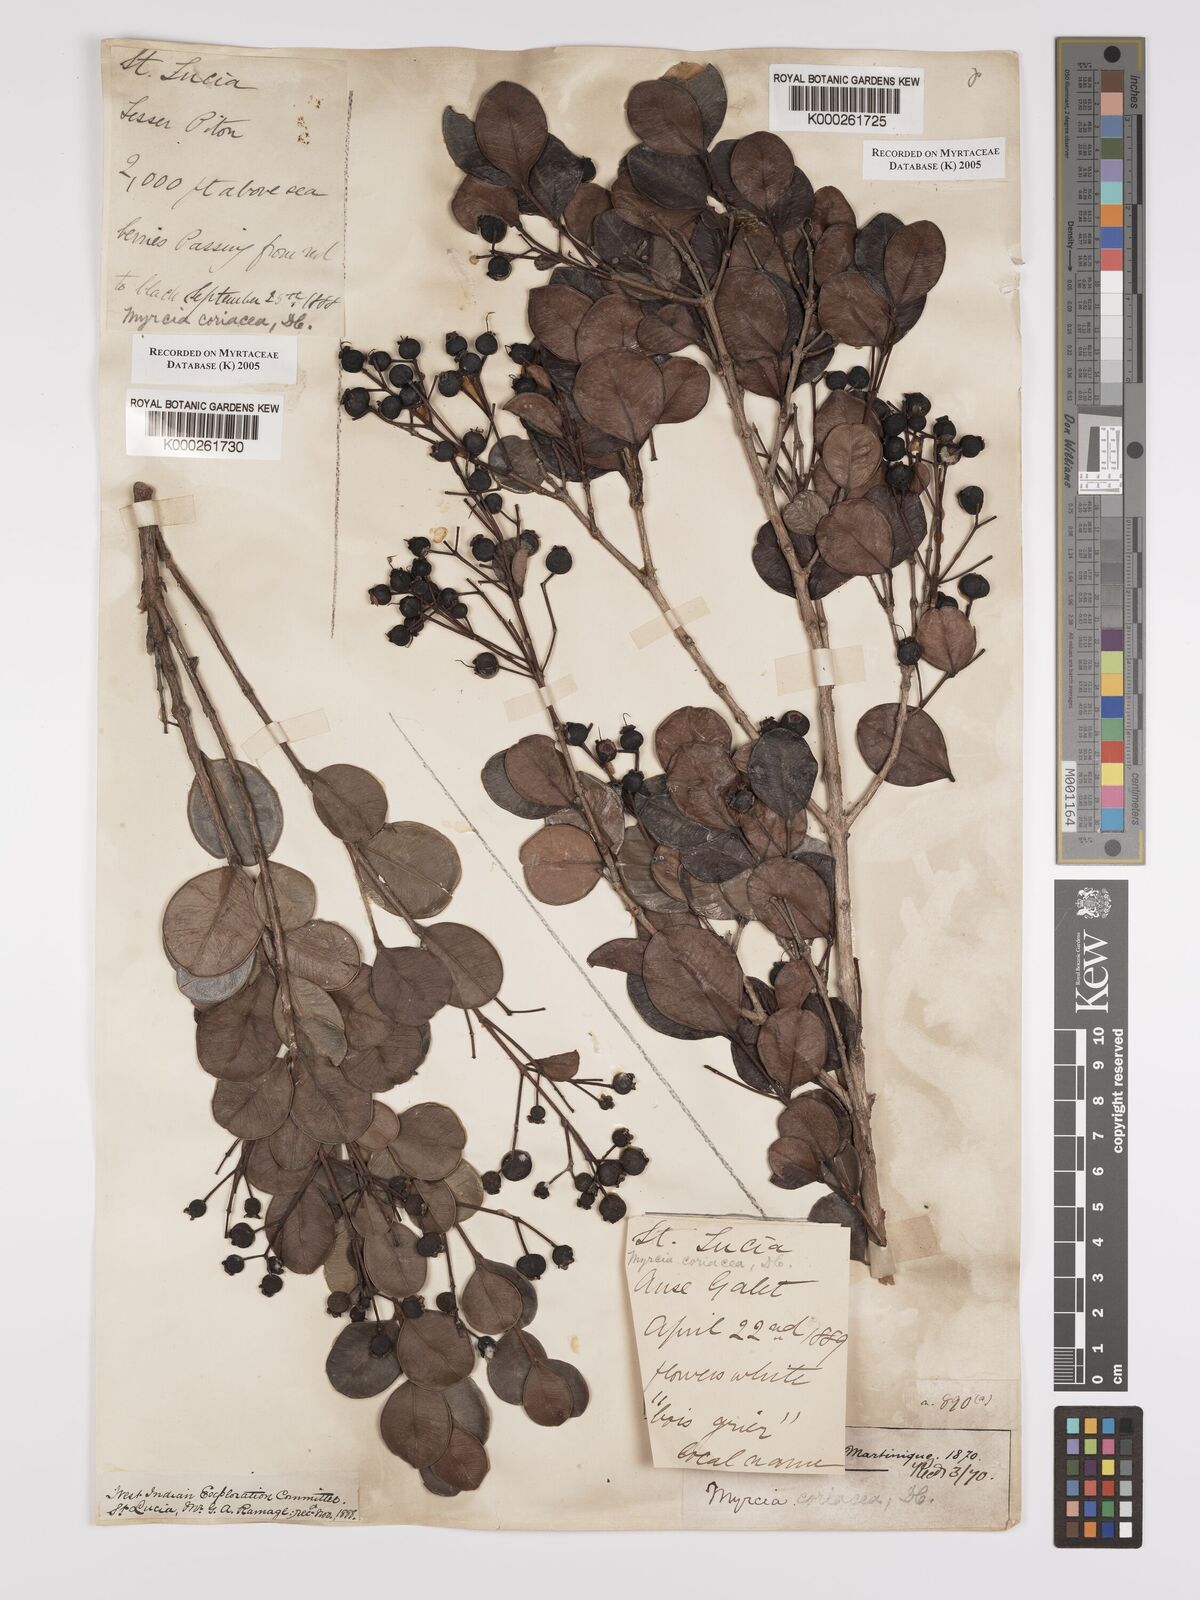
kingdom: Plantae
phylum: Tracheophyta
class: Magnoliopsida
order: Myrtales
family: Myrtaceae
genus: Myrcia
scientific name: Myrcia guianensis
